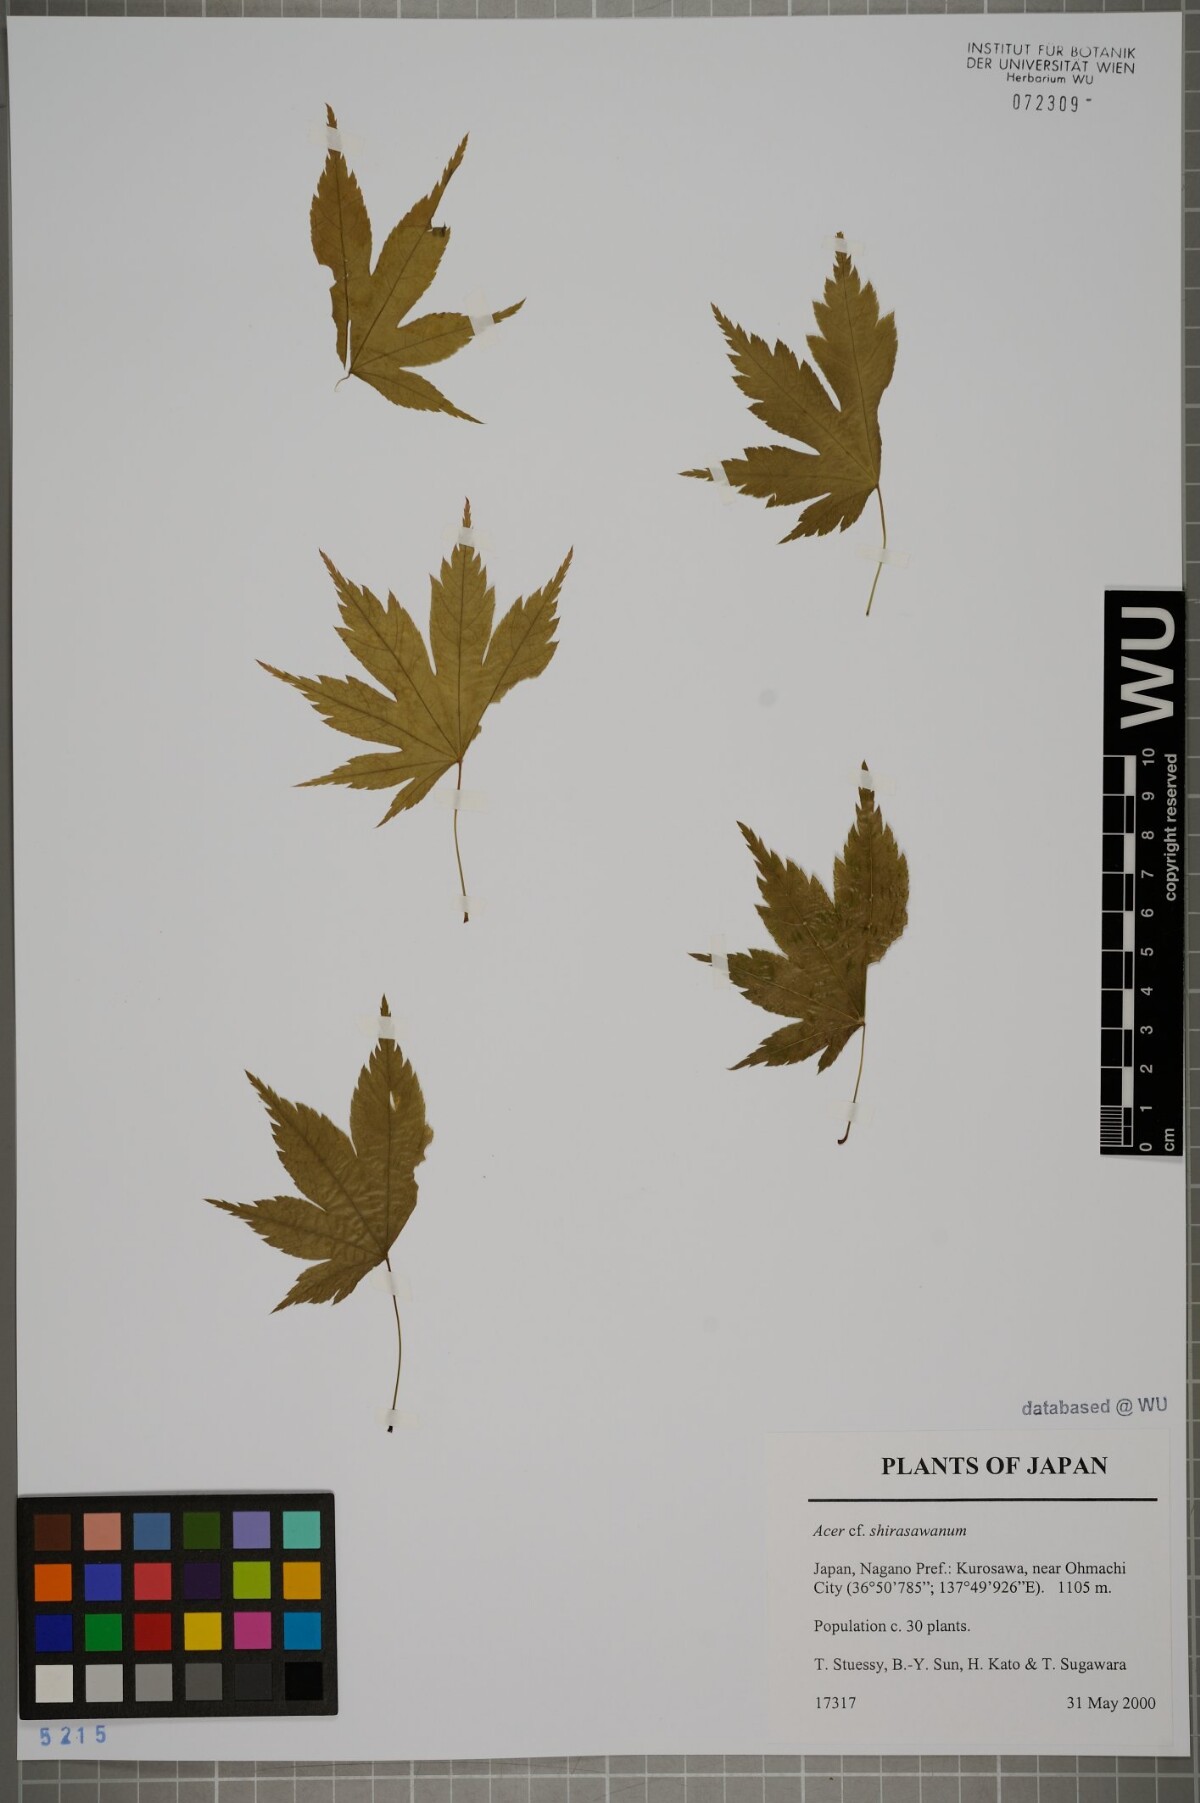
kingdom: Plantae
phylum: Tracheophyta
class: Magnoliopsida
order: Sapindales
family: Sapindaceae
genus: Acer
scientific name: Acer shirasawanum
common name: Full moon maple
